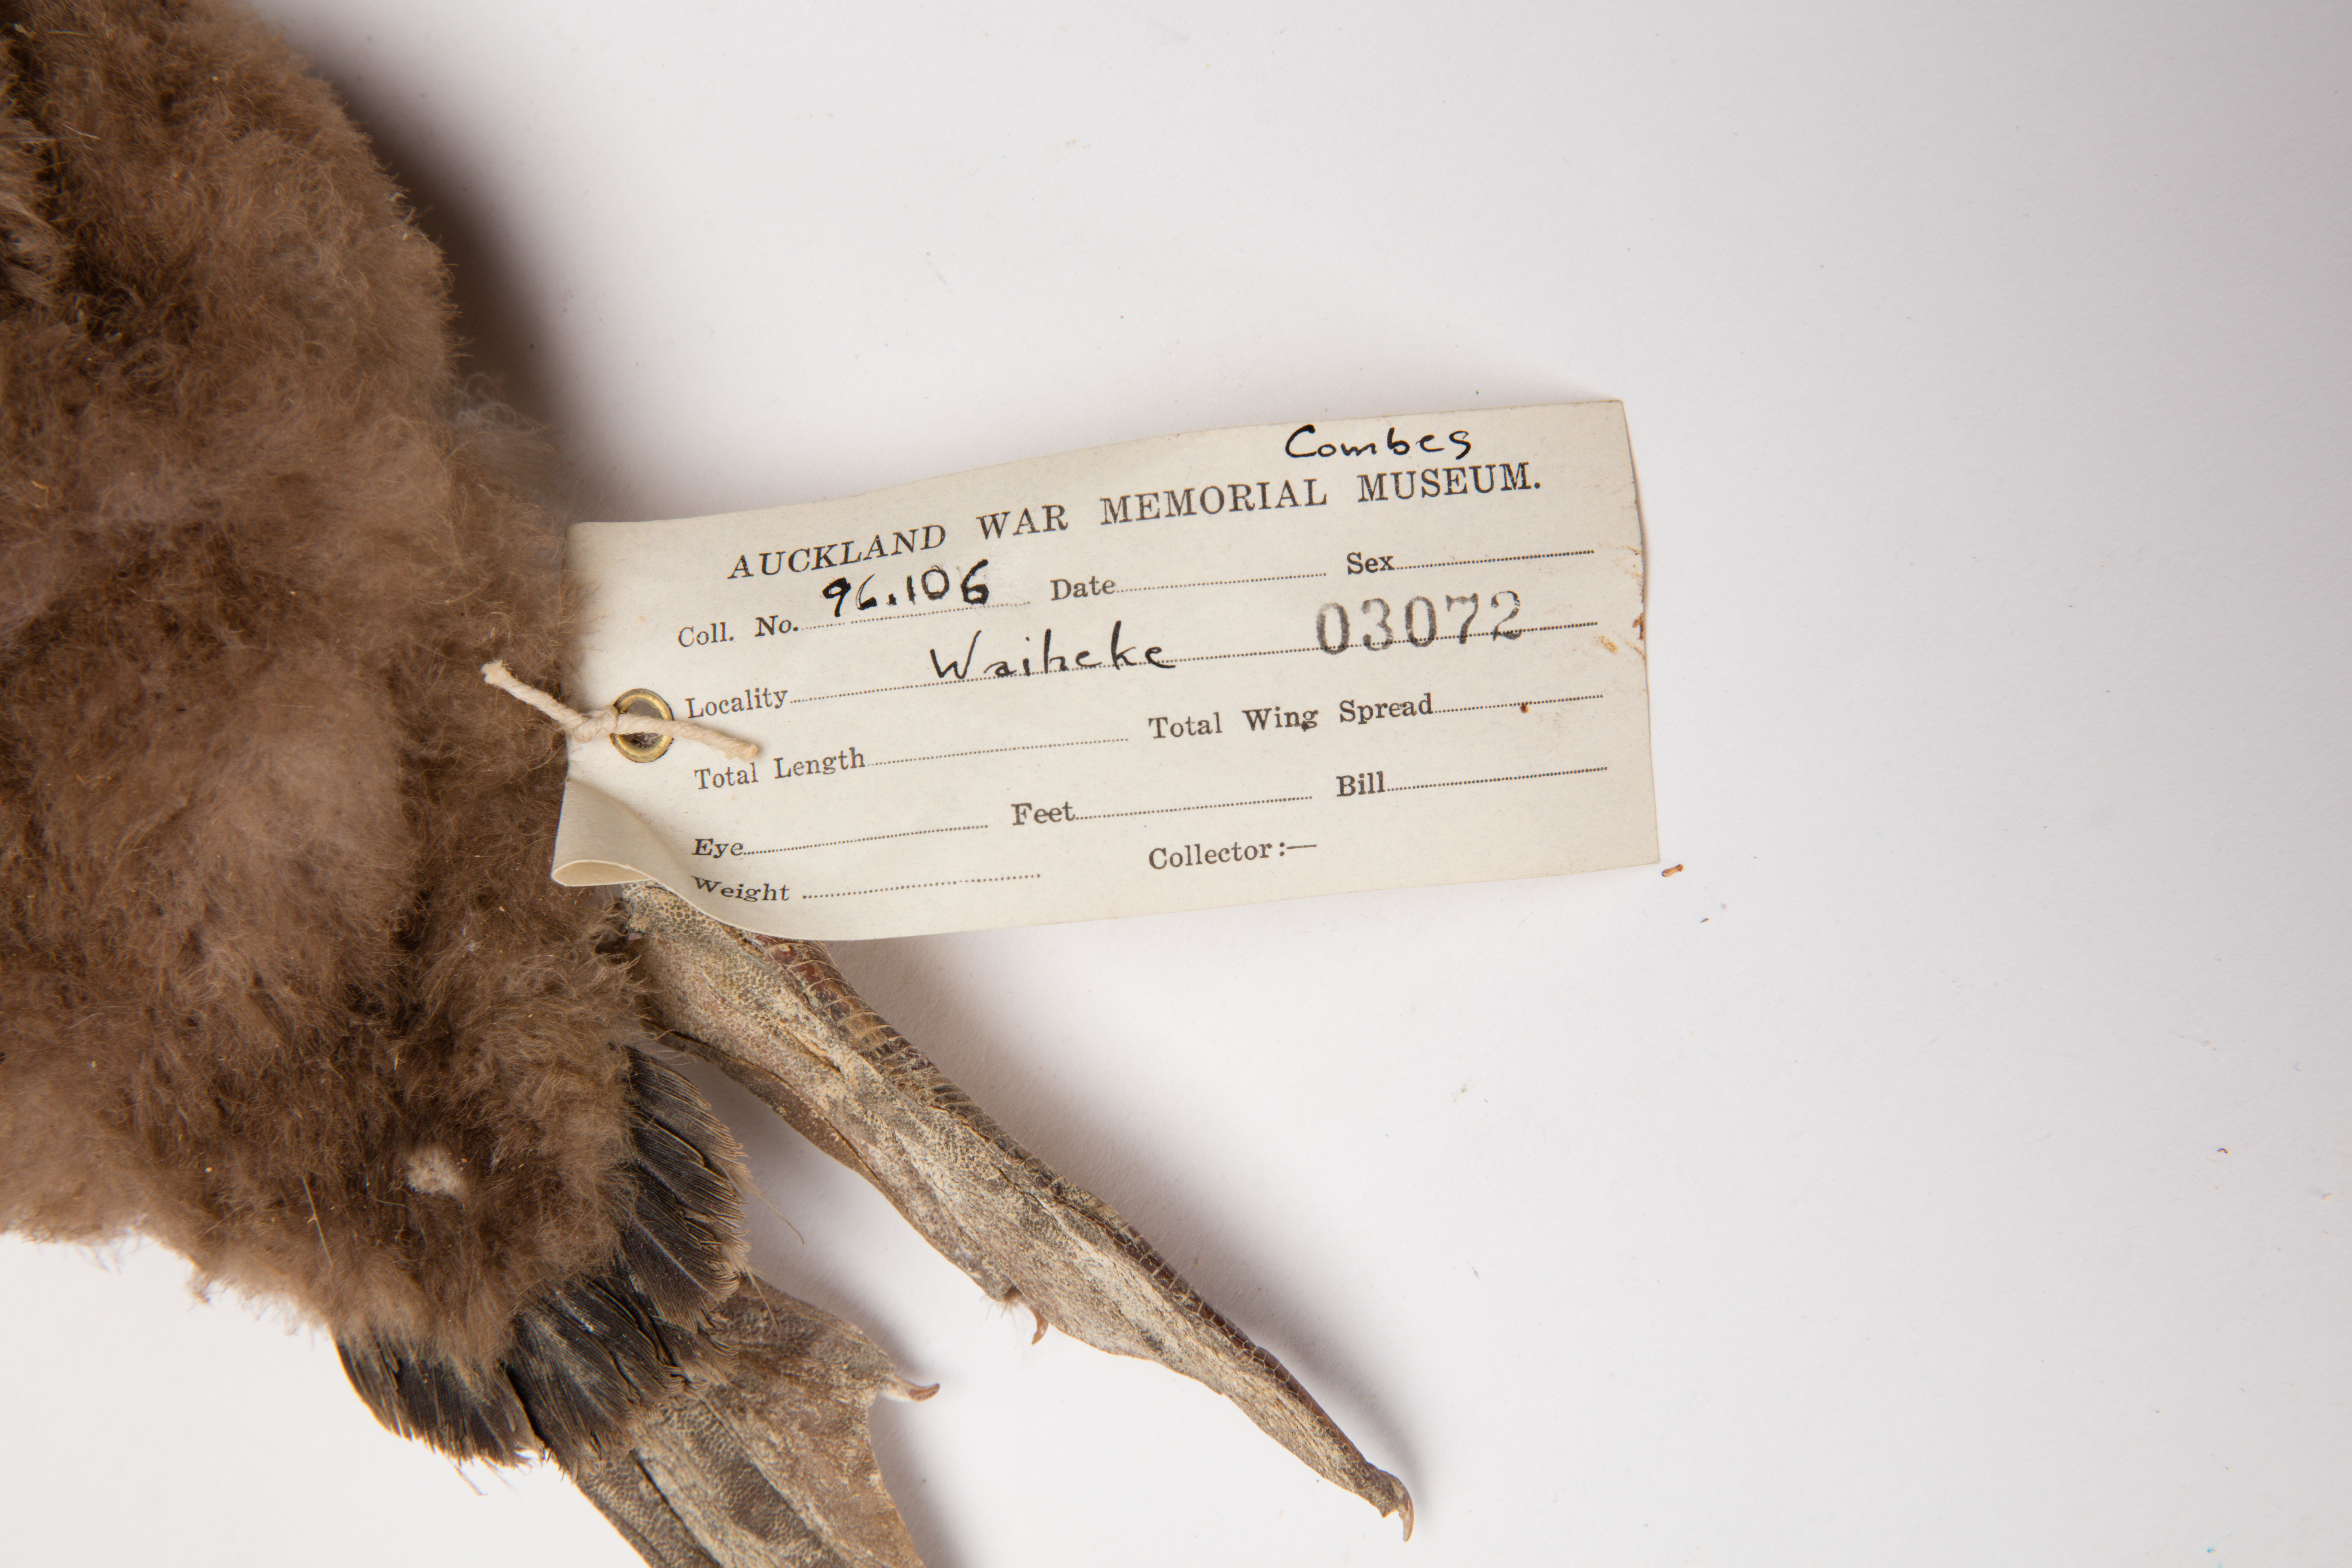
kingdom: Animalia
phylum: Chordata
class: Aves
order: Suliformes
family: Phalacrocoracidae
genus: Phalacrocorax
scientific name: Phalacrocorax punctatus
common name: Spotted shag
